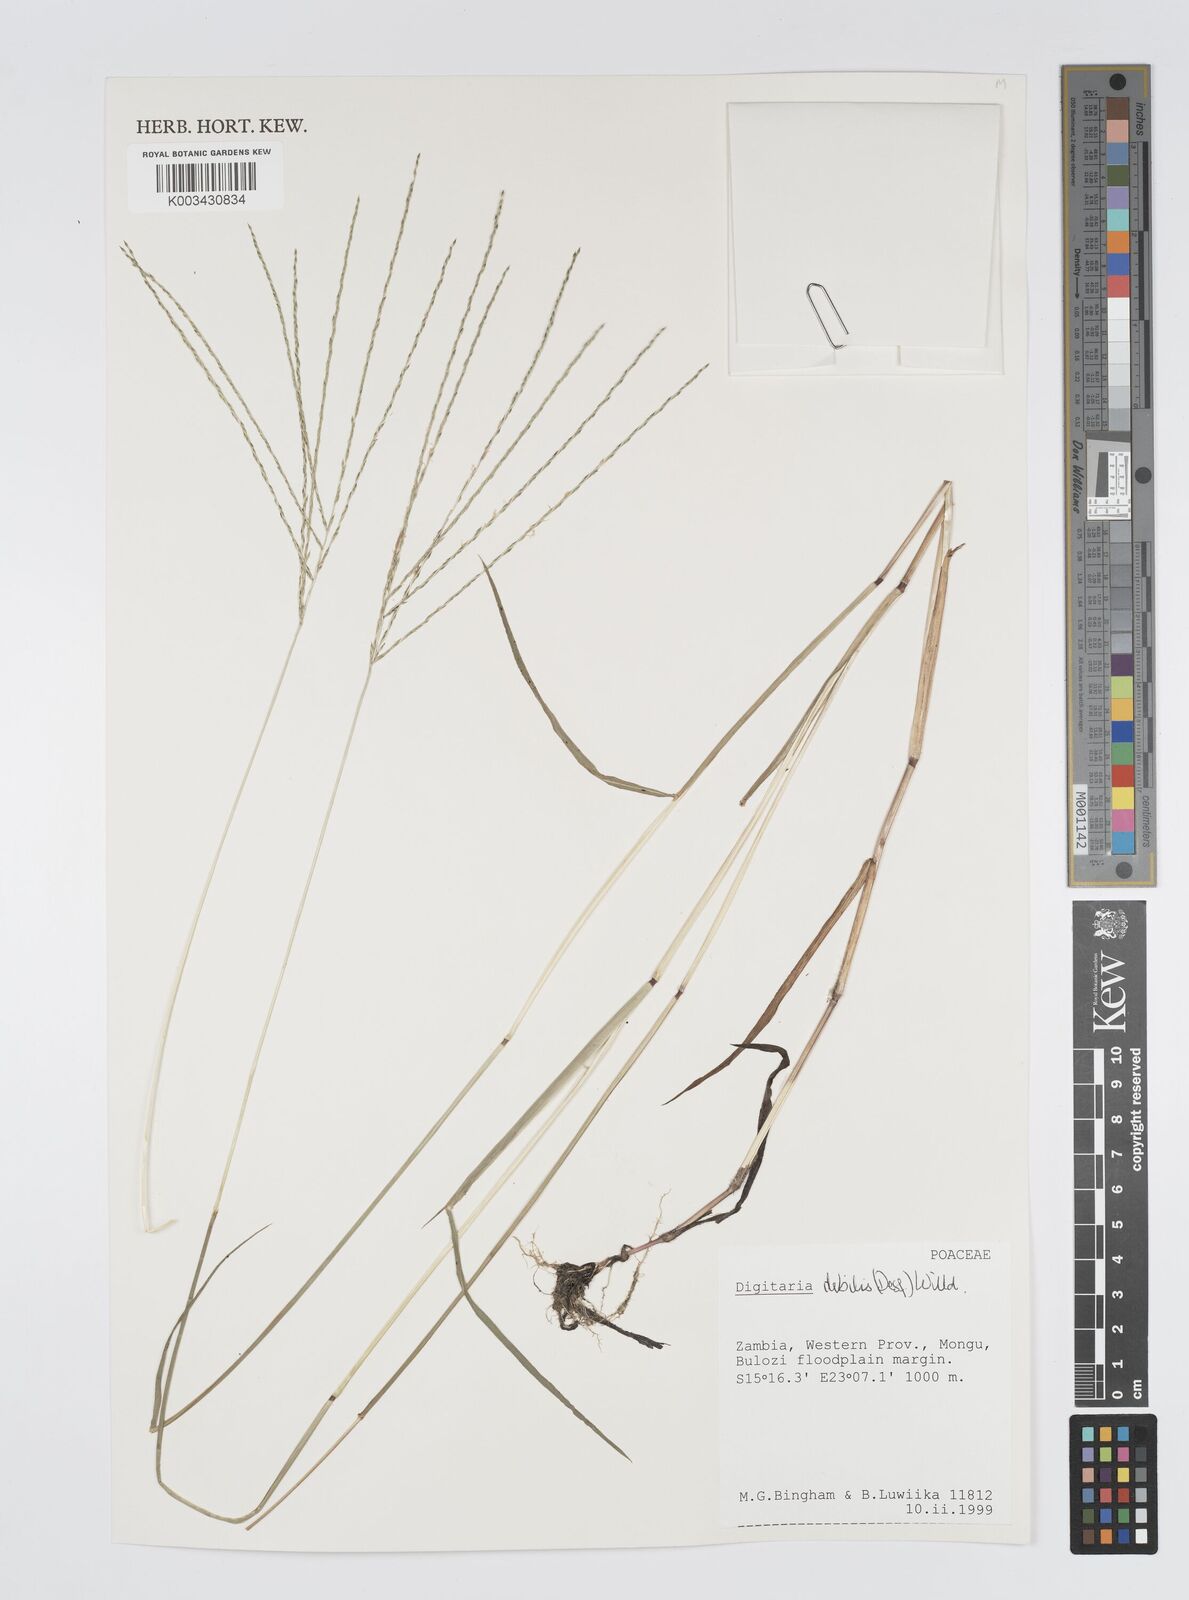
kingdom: Plantae
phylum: Tracheophyta
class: Liliopsida
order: Poales
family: Poaceae
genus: Digitaria
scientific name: Digitaria debilis
